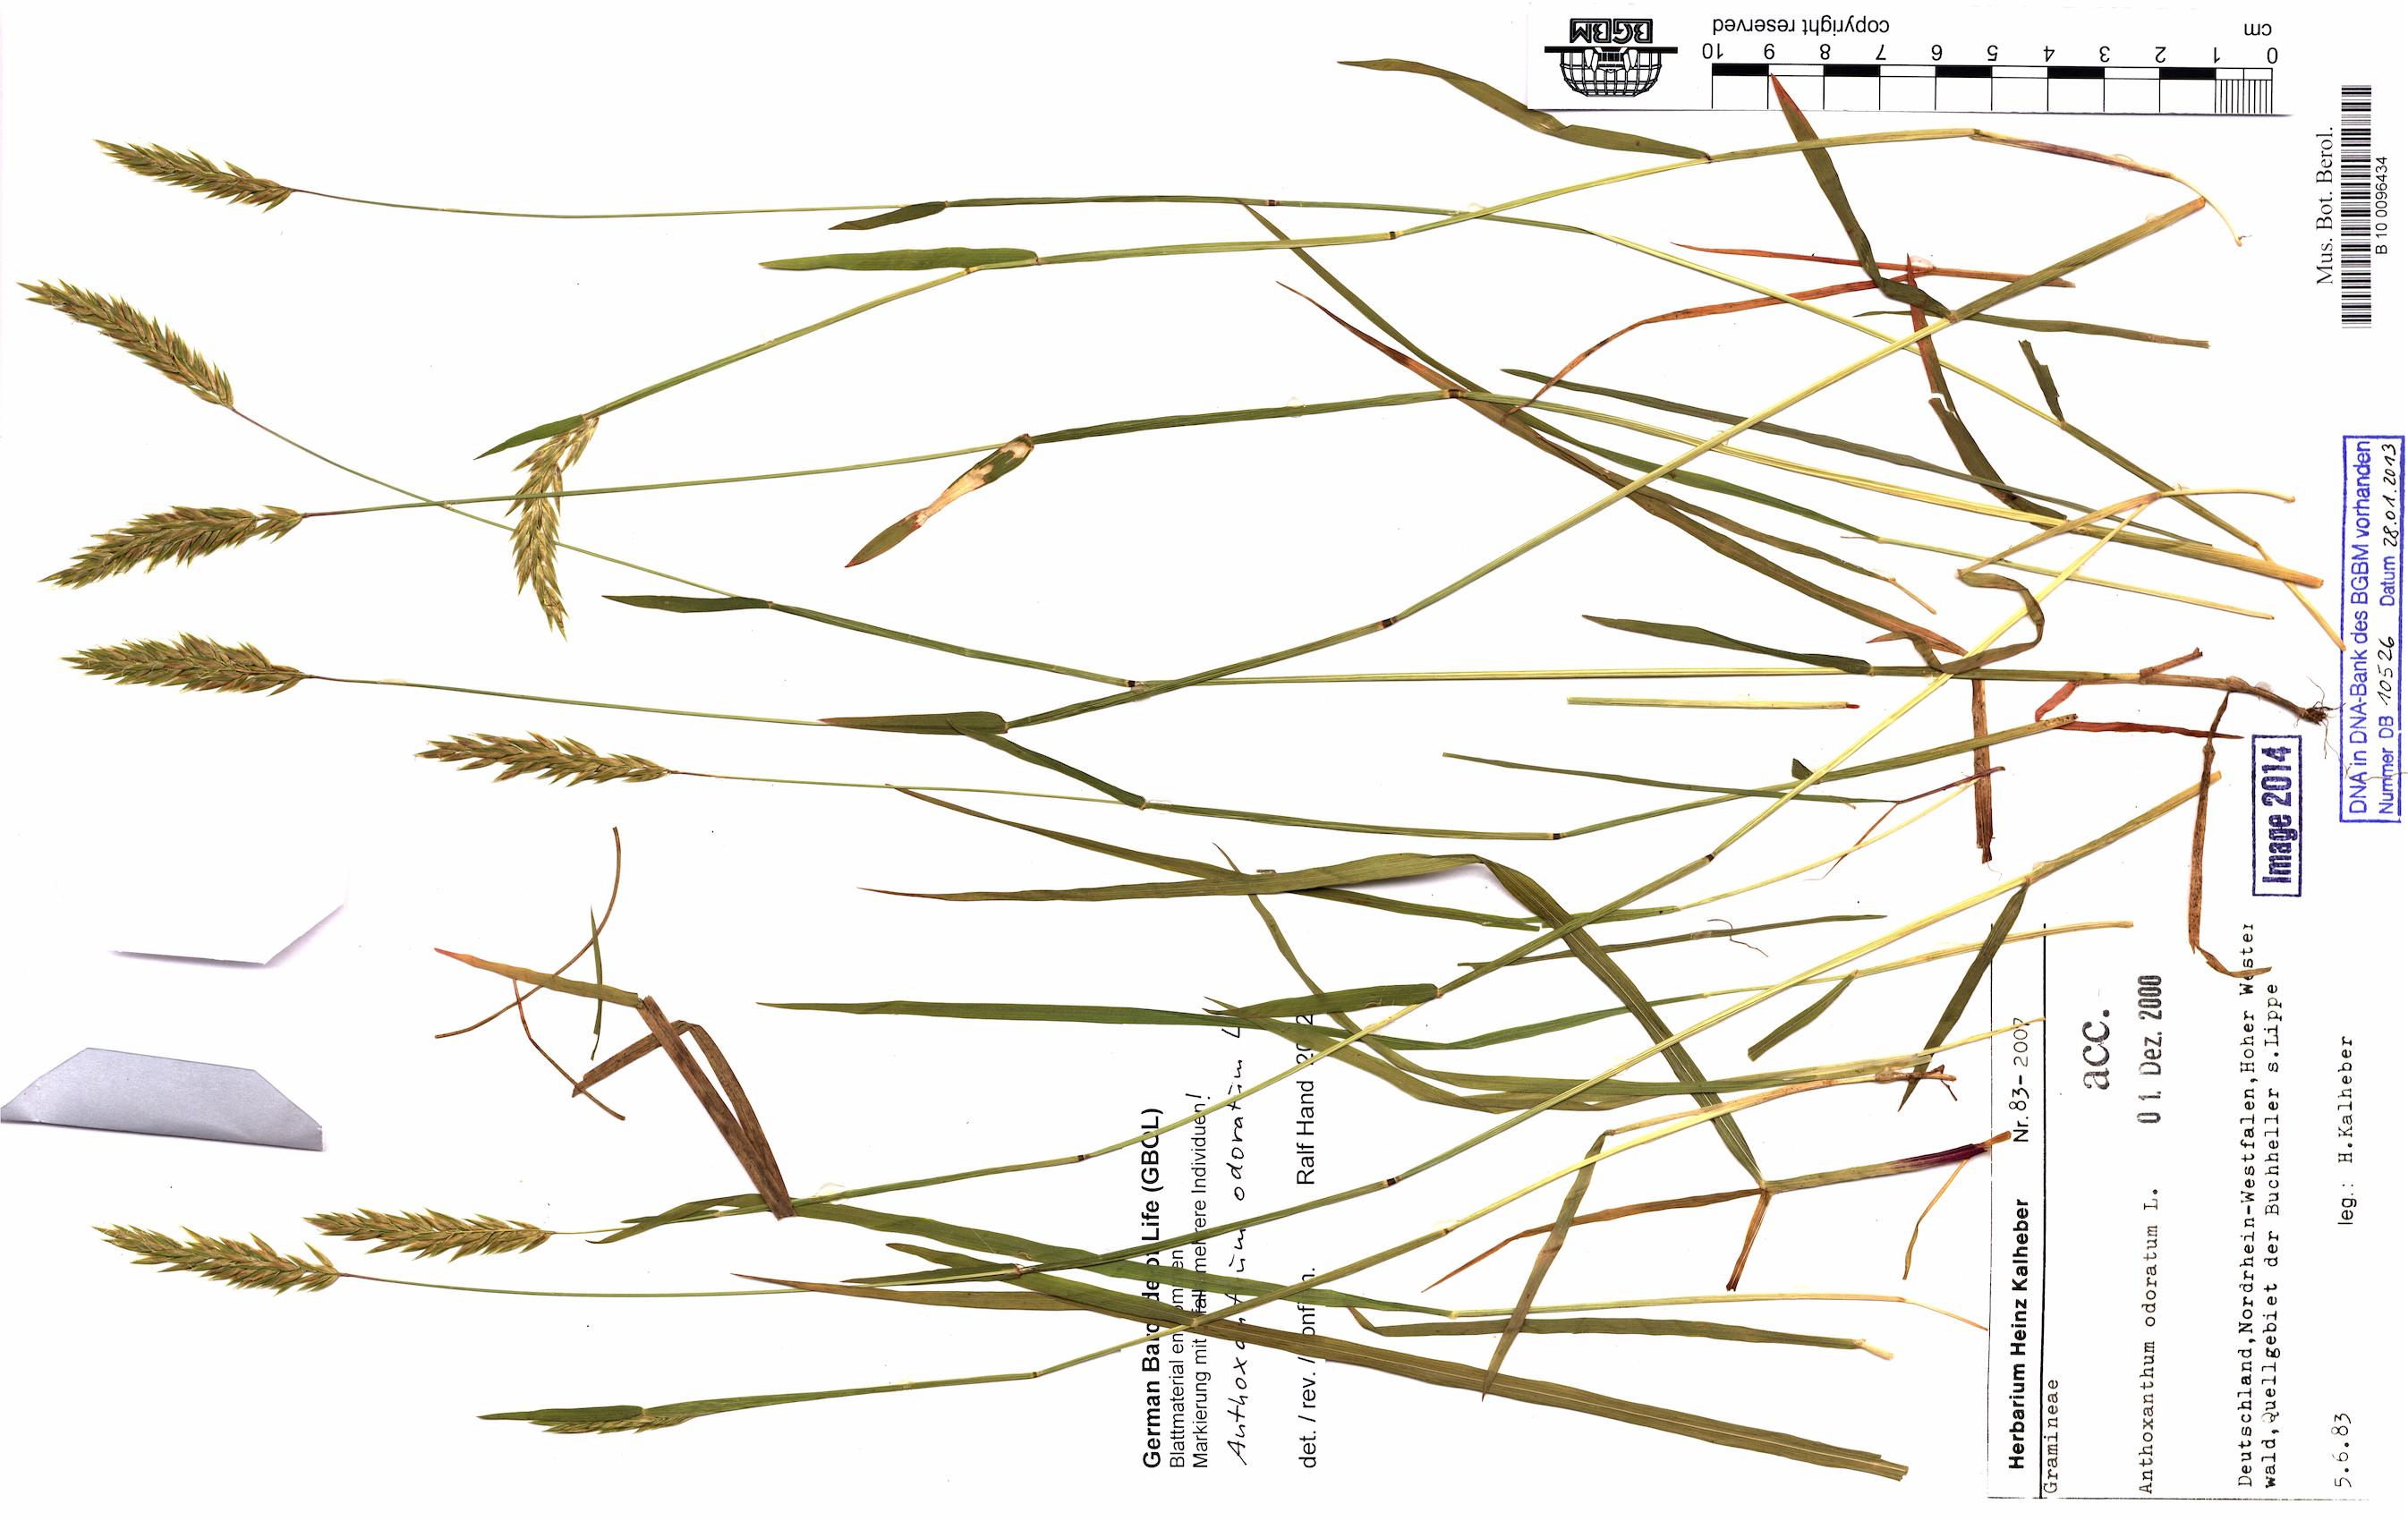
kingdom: Plantae
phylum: Tracheophyta
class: Liliopsida
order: Poales
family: Poaceae
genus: Anthoxanthum
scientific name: Anthoxanthum odoratum
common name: Sweet vernalgrass
